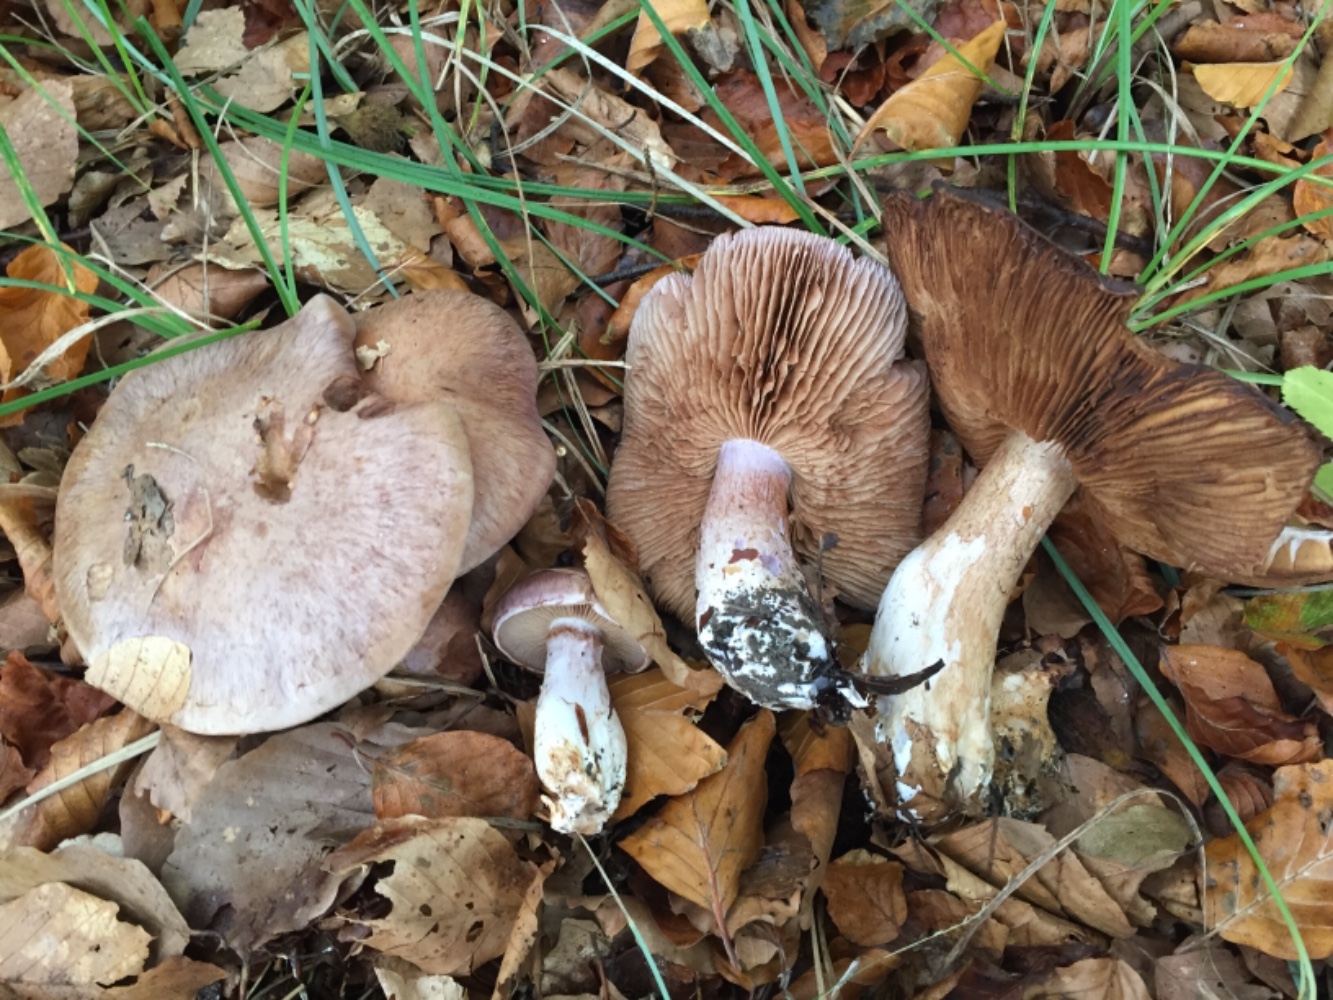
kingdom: Fungi
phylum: Basidiomycota
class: Agaricomycetes
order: Agaricales
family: Cortinariaceae
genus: Cortinarius
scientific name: Cortinarius variecolor
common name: violetagtig slørhat
